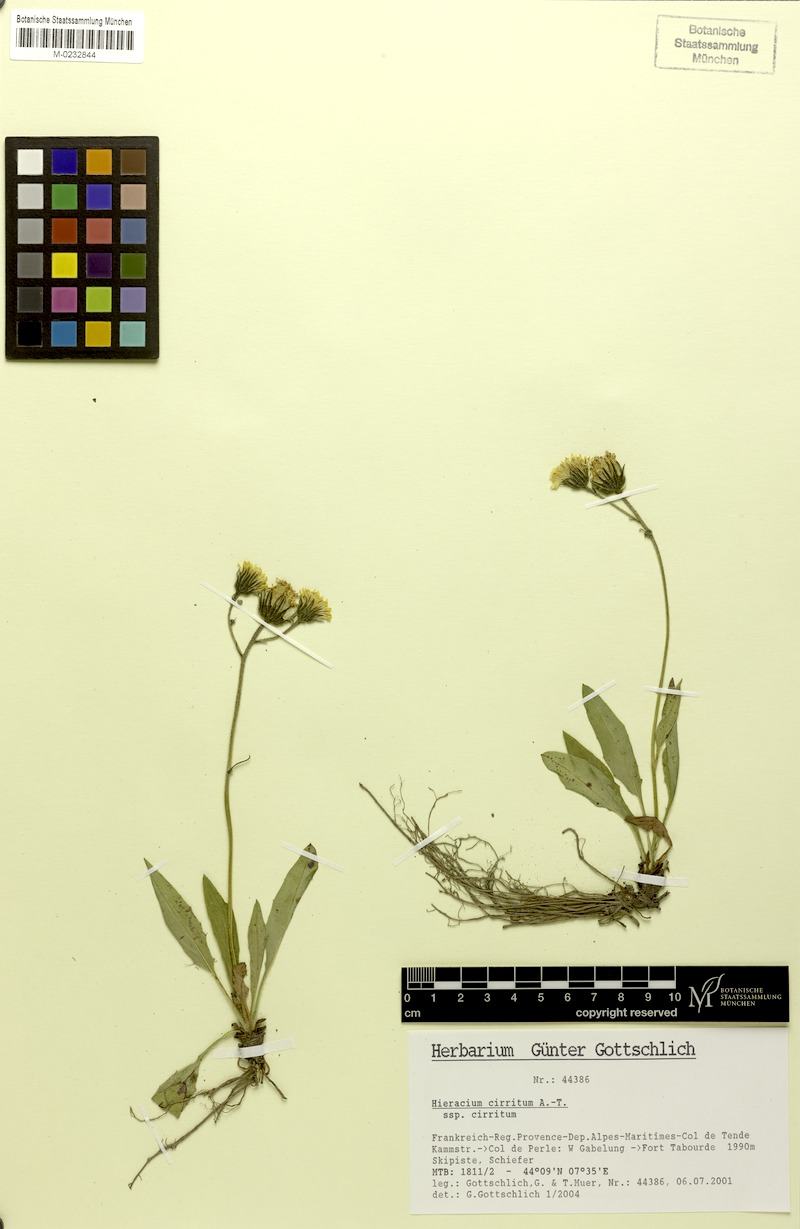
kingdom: Plantae
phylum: Tracheophyta
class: Magnoliopsida
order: Asterales
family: Asteraceae
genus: Hieracium
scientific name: Hieracium cirritum
